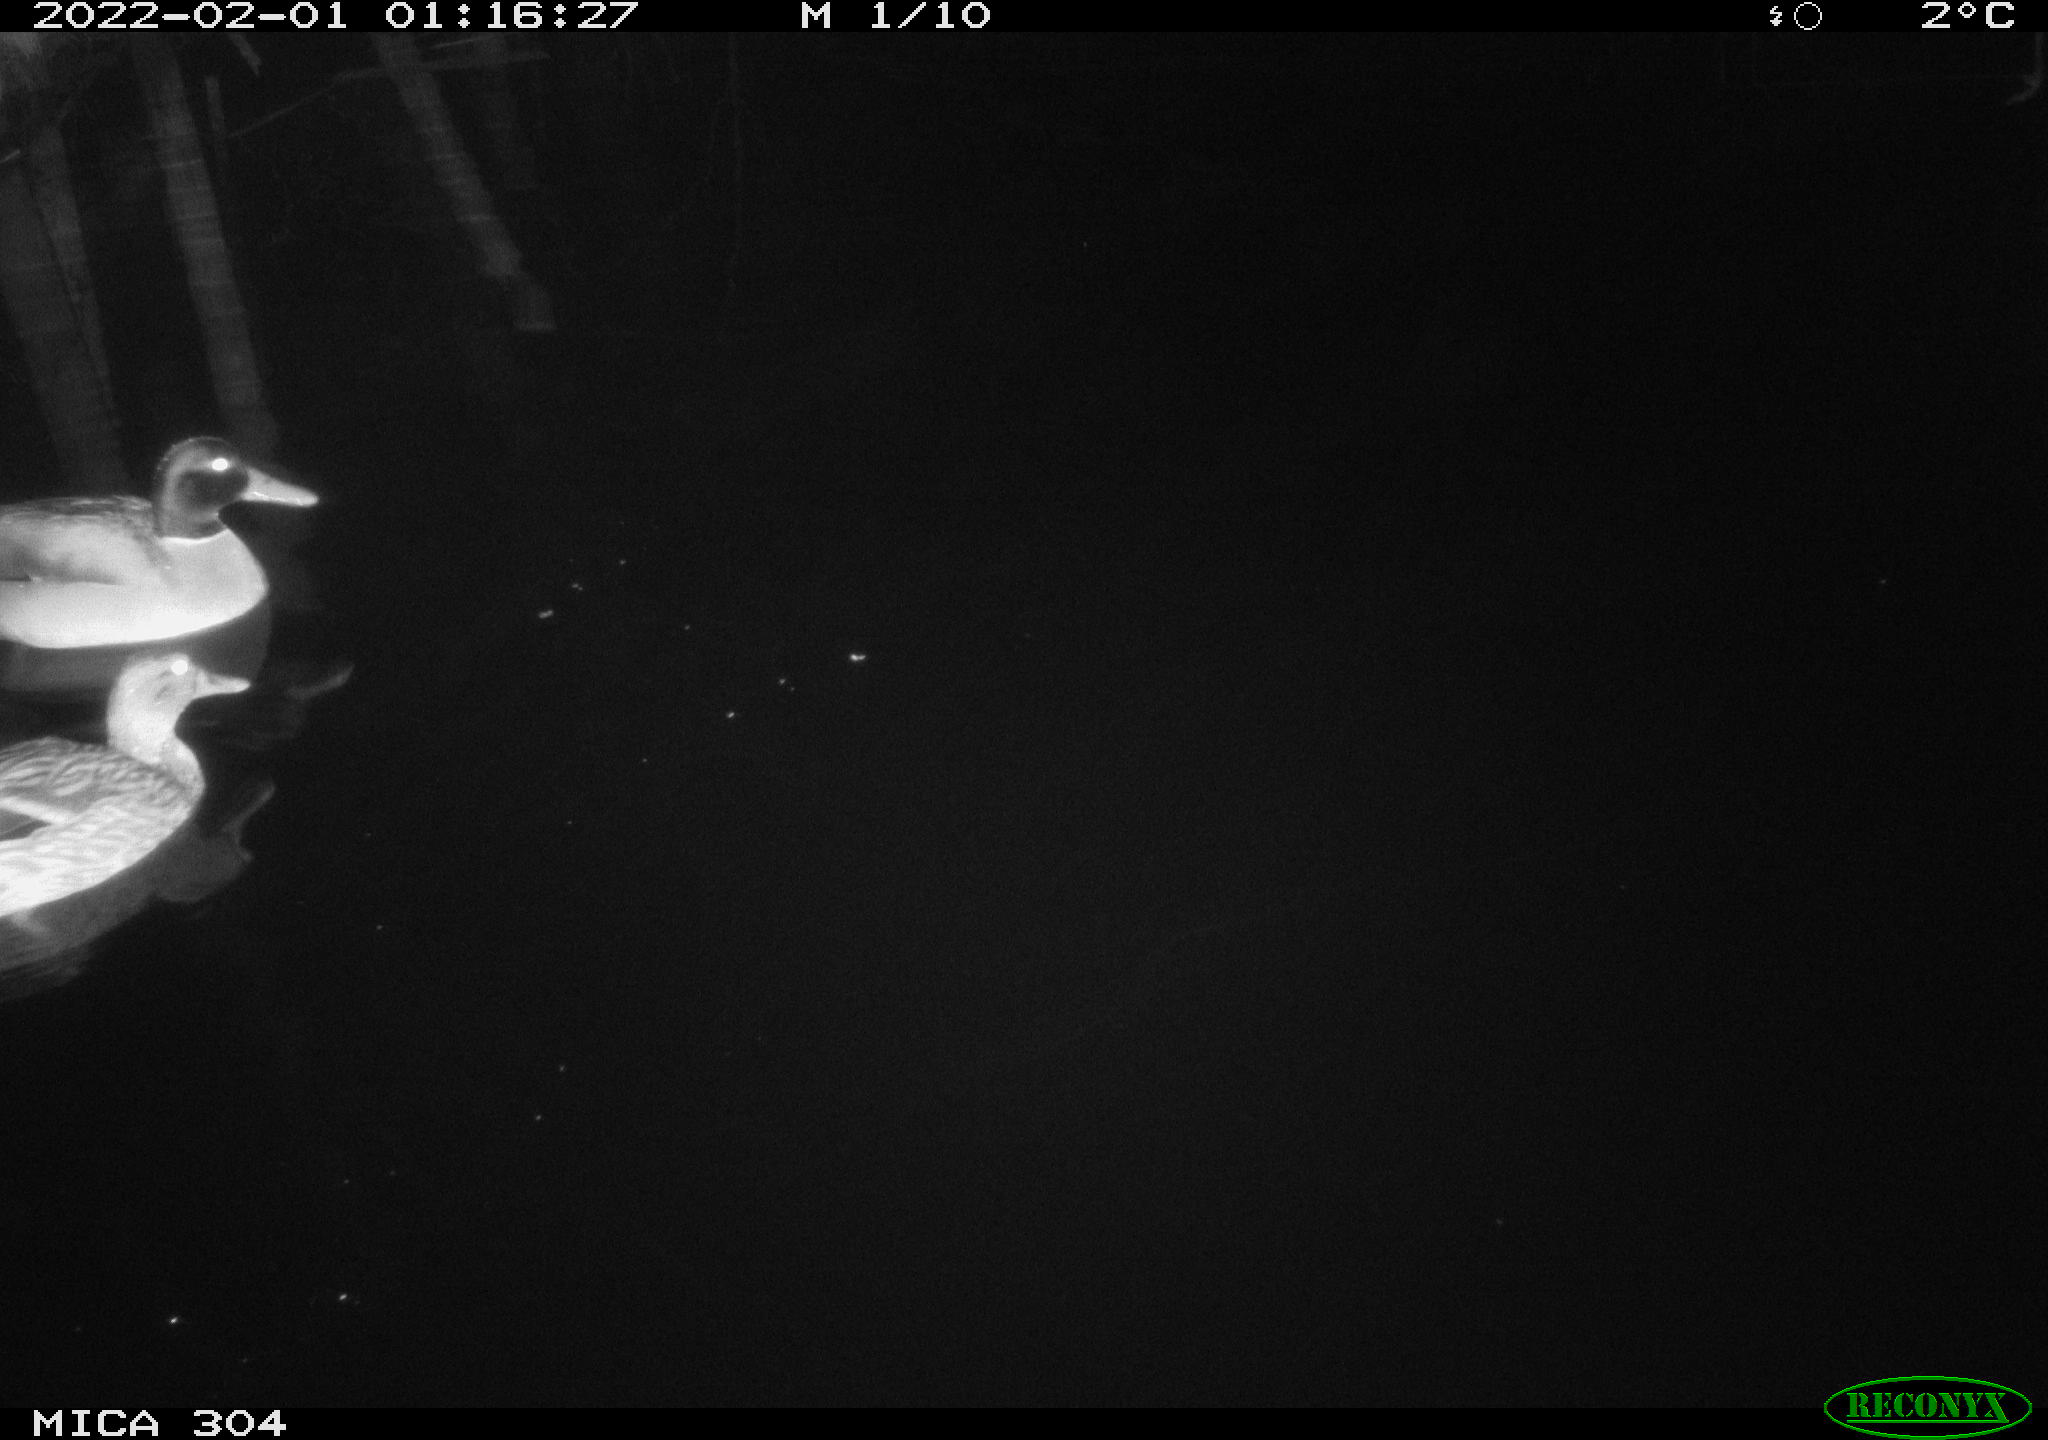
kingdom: Animalia
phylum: Chordata
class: Aves
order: Anseriformes
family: Anatidae
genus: Anas
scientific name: Anas
